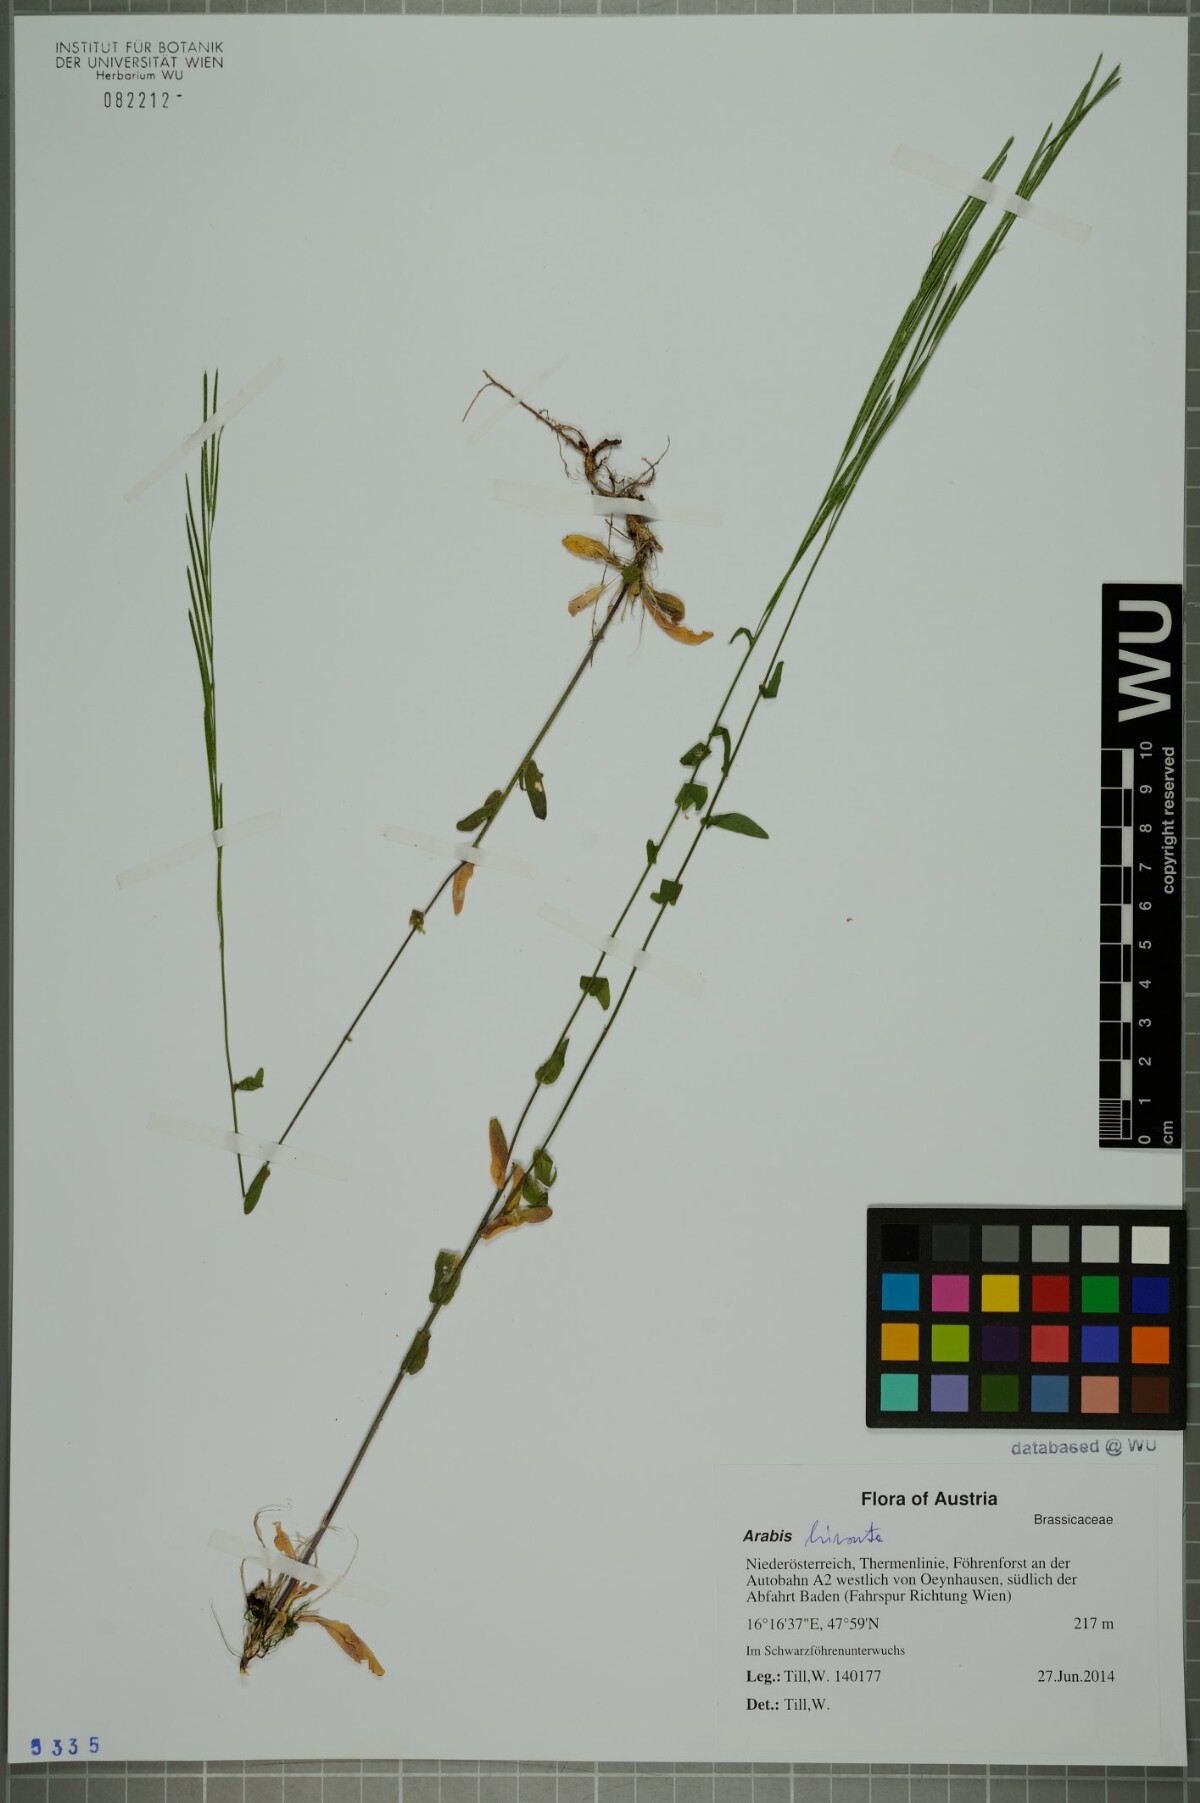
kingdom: Plantae
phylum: Tracheophyta
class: Magnoliopsida
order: Brassicales
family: Brassicaceae
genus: Arabis
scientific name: Arabis hirsuta
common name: Hairy rock-cress
